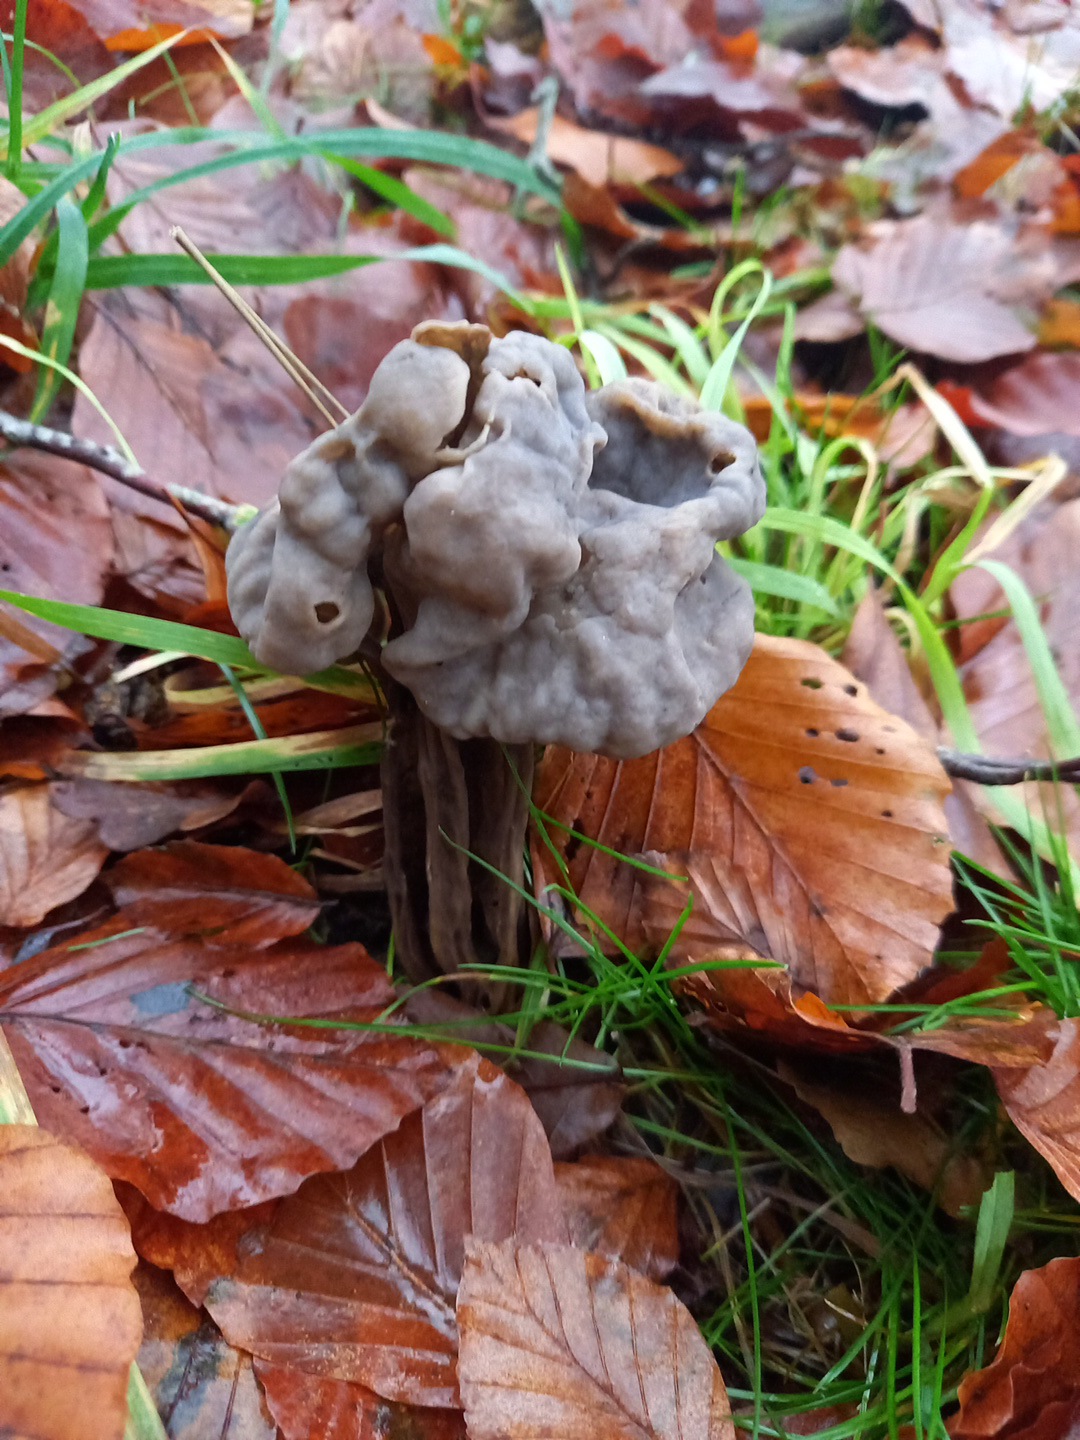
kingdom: Fungi
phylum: Ascomycota
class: Pezizomycetes
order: Pezizales
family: Helvellaceae
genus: Helvella
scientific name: Helvella lacunosa
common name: grubet foldhat
